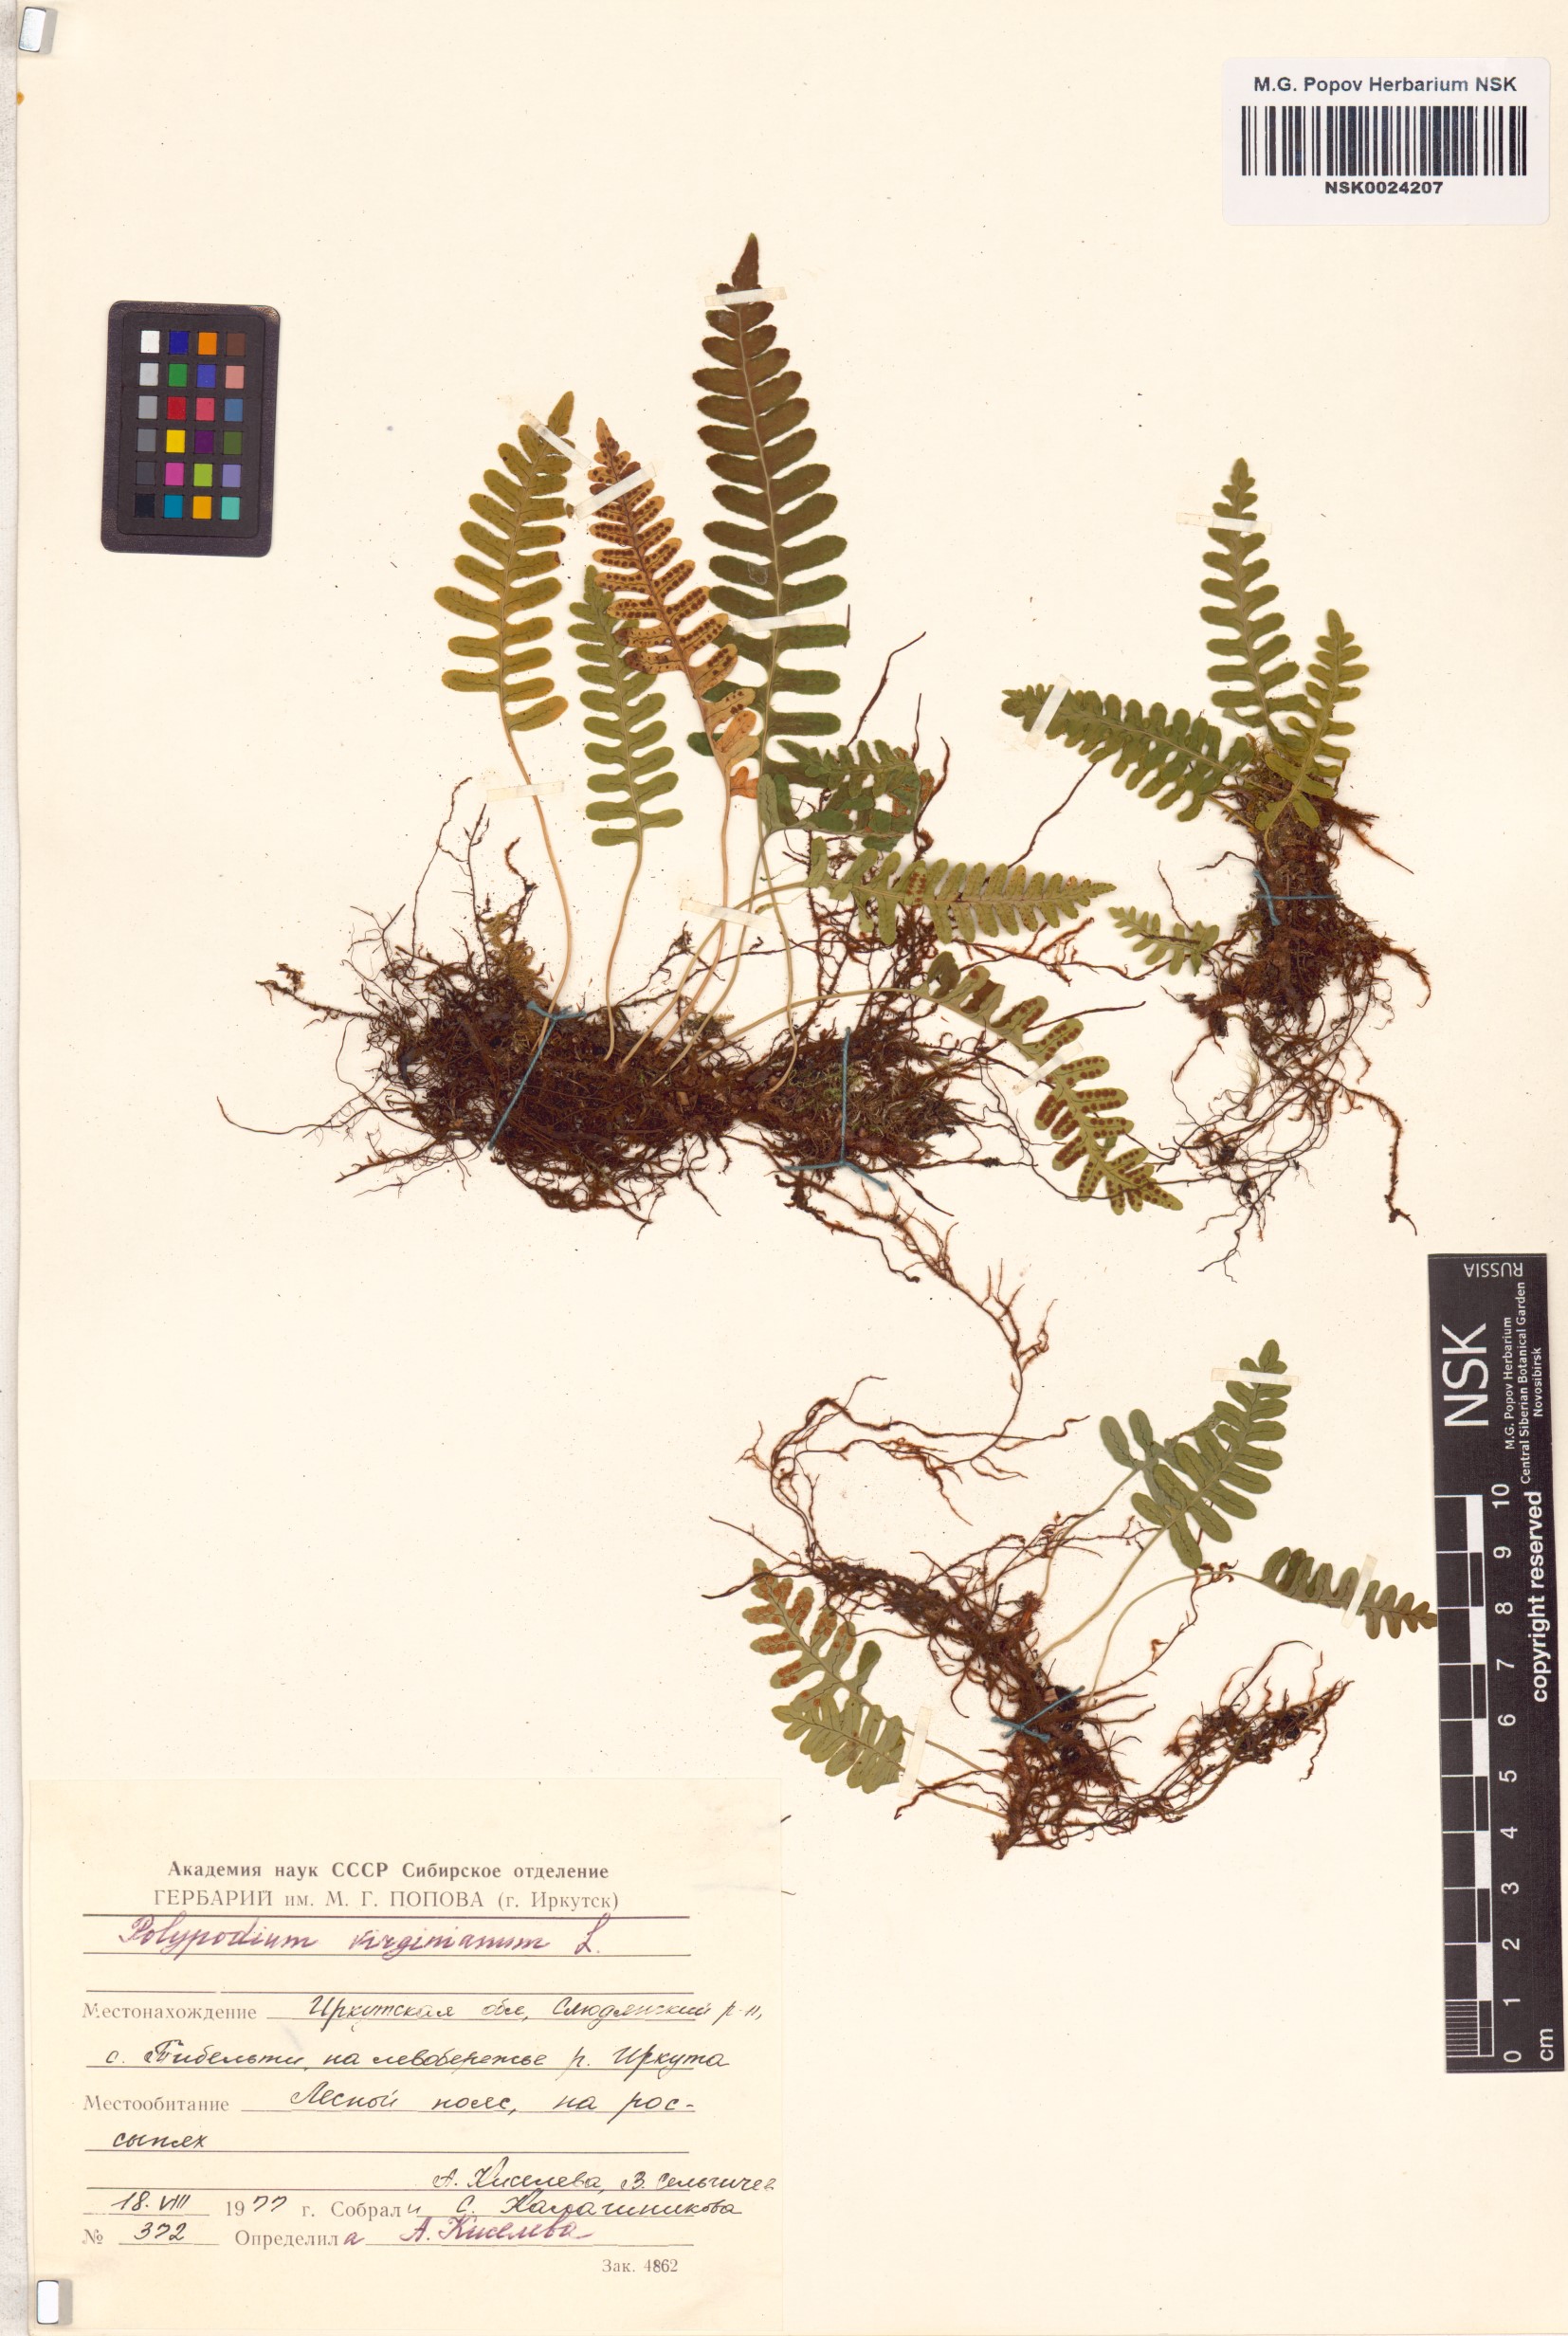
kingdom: Plantae
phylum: Tracheophyta
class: Polypodiopsida
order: Polypodiales
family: Polypodiaceae
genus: Polypodium
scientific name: Polypodium virginianum
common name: American wall fern
